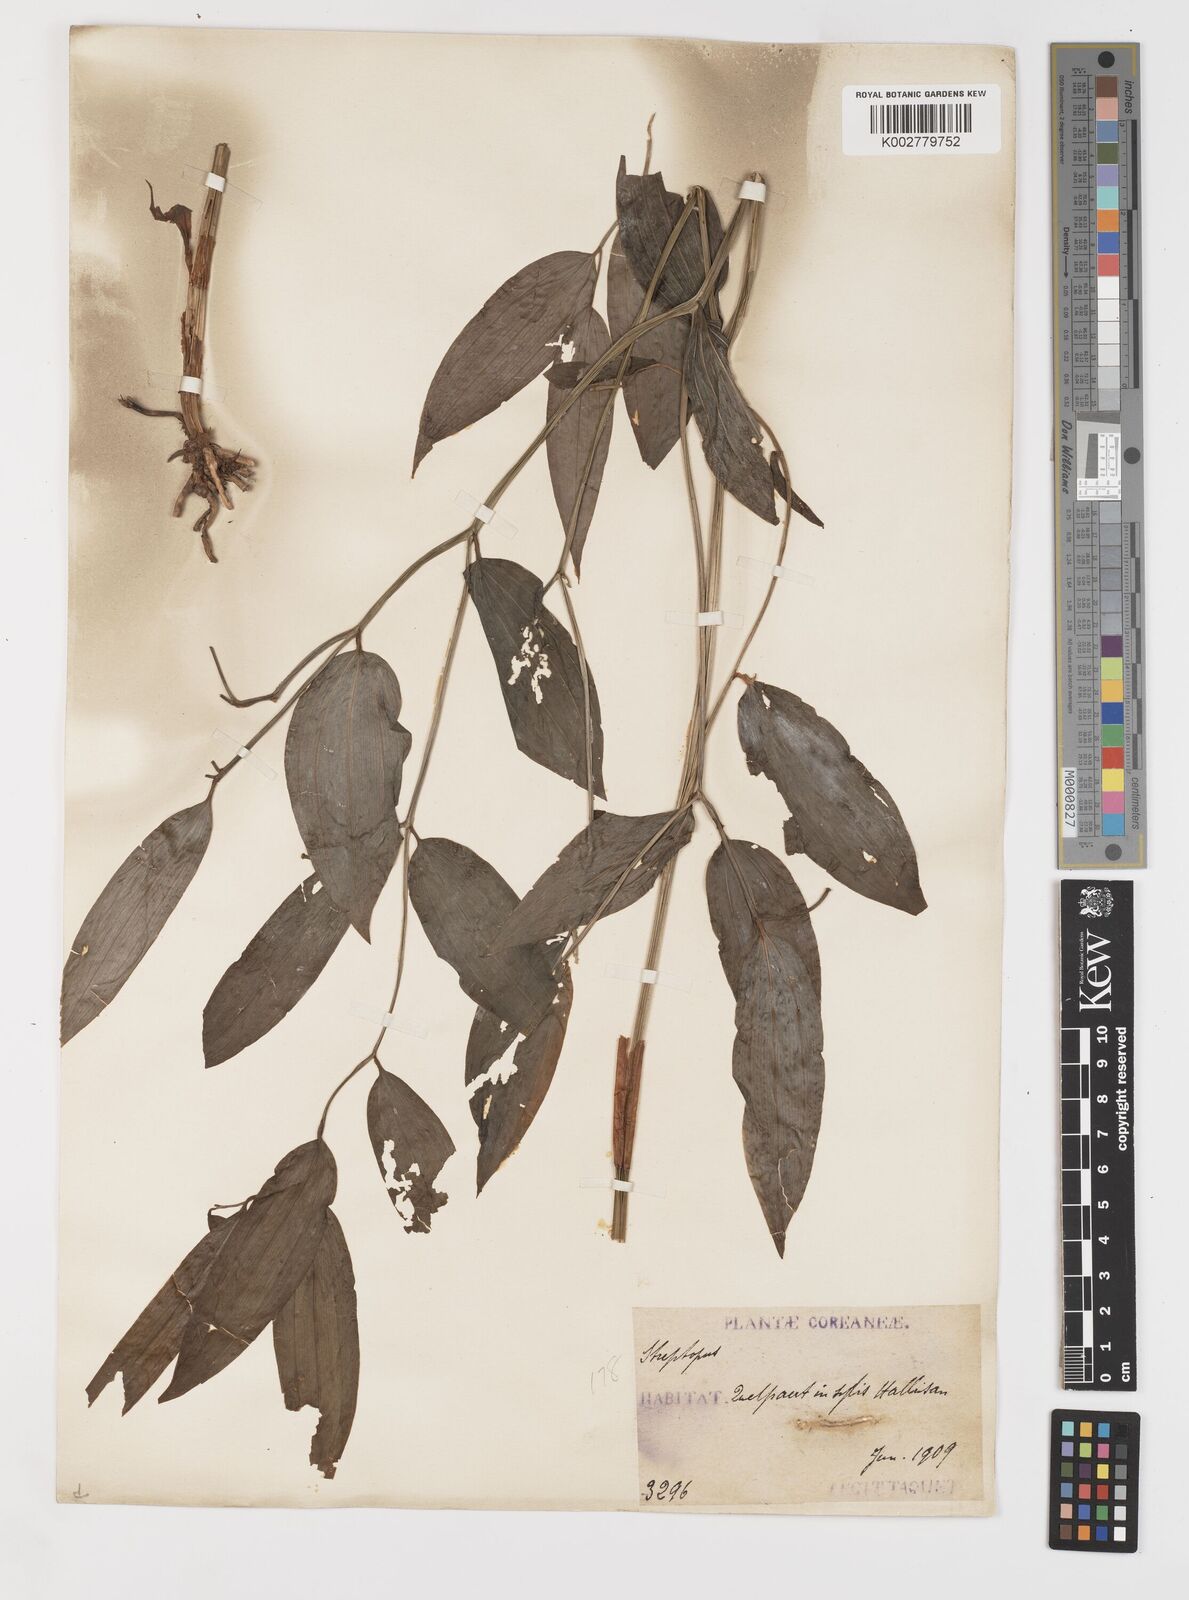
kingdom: Plantae
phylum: Tracheophyta
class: Liliopsida
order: Liliales
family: Colchicaceae
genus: Disporum
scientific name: Disporum sessile
